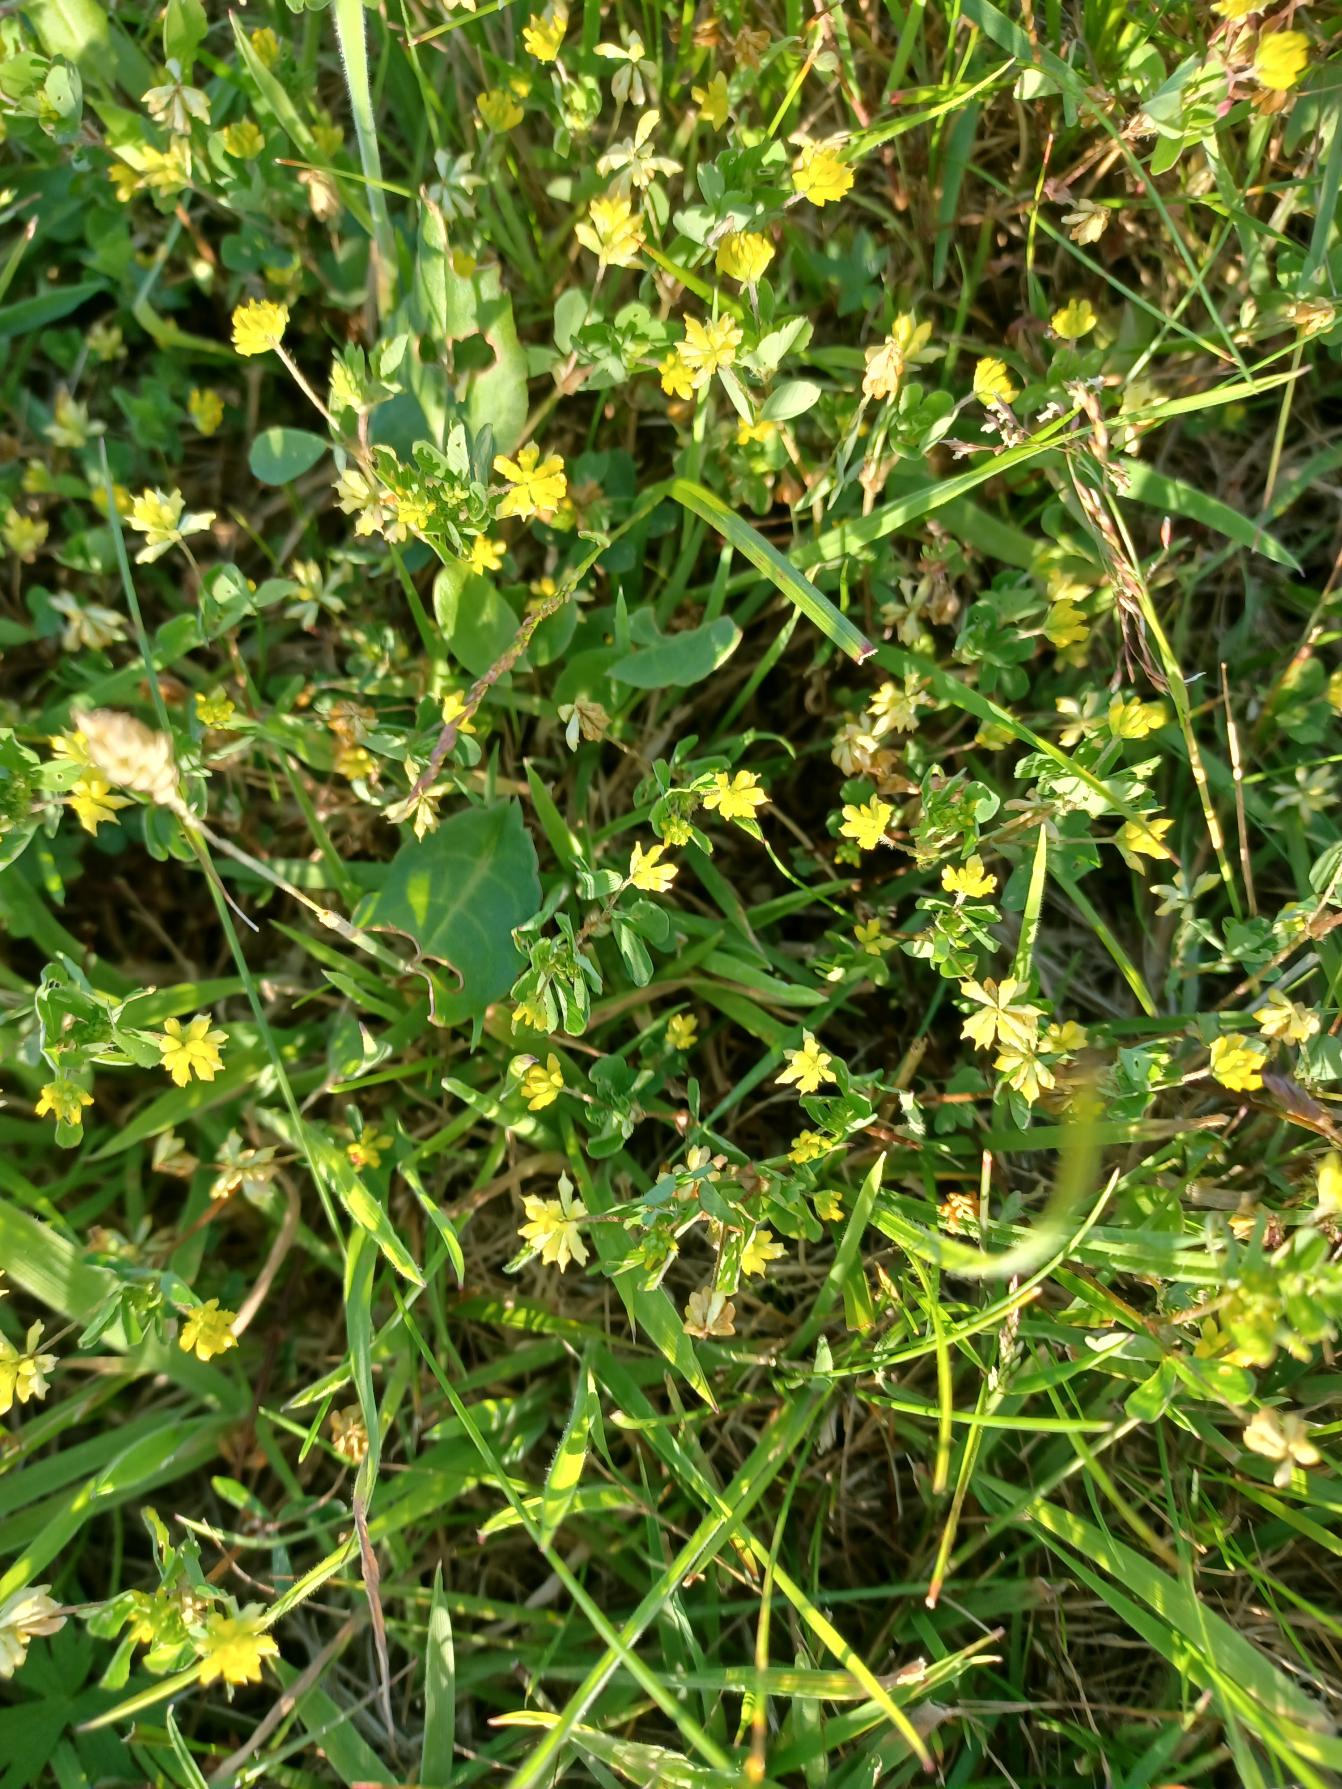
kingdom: Plantae
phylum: Tracheophyta
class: Magnoliopsida
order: Fabales
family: Fabaceae
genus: Trifolium
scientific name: Trifolium dubium
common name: Fin kløver
